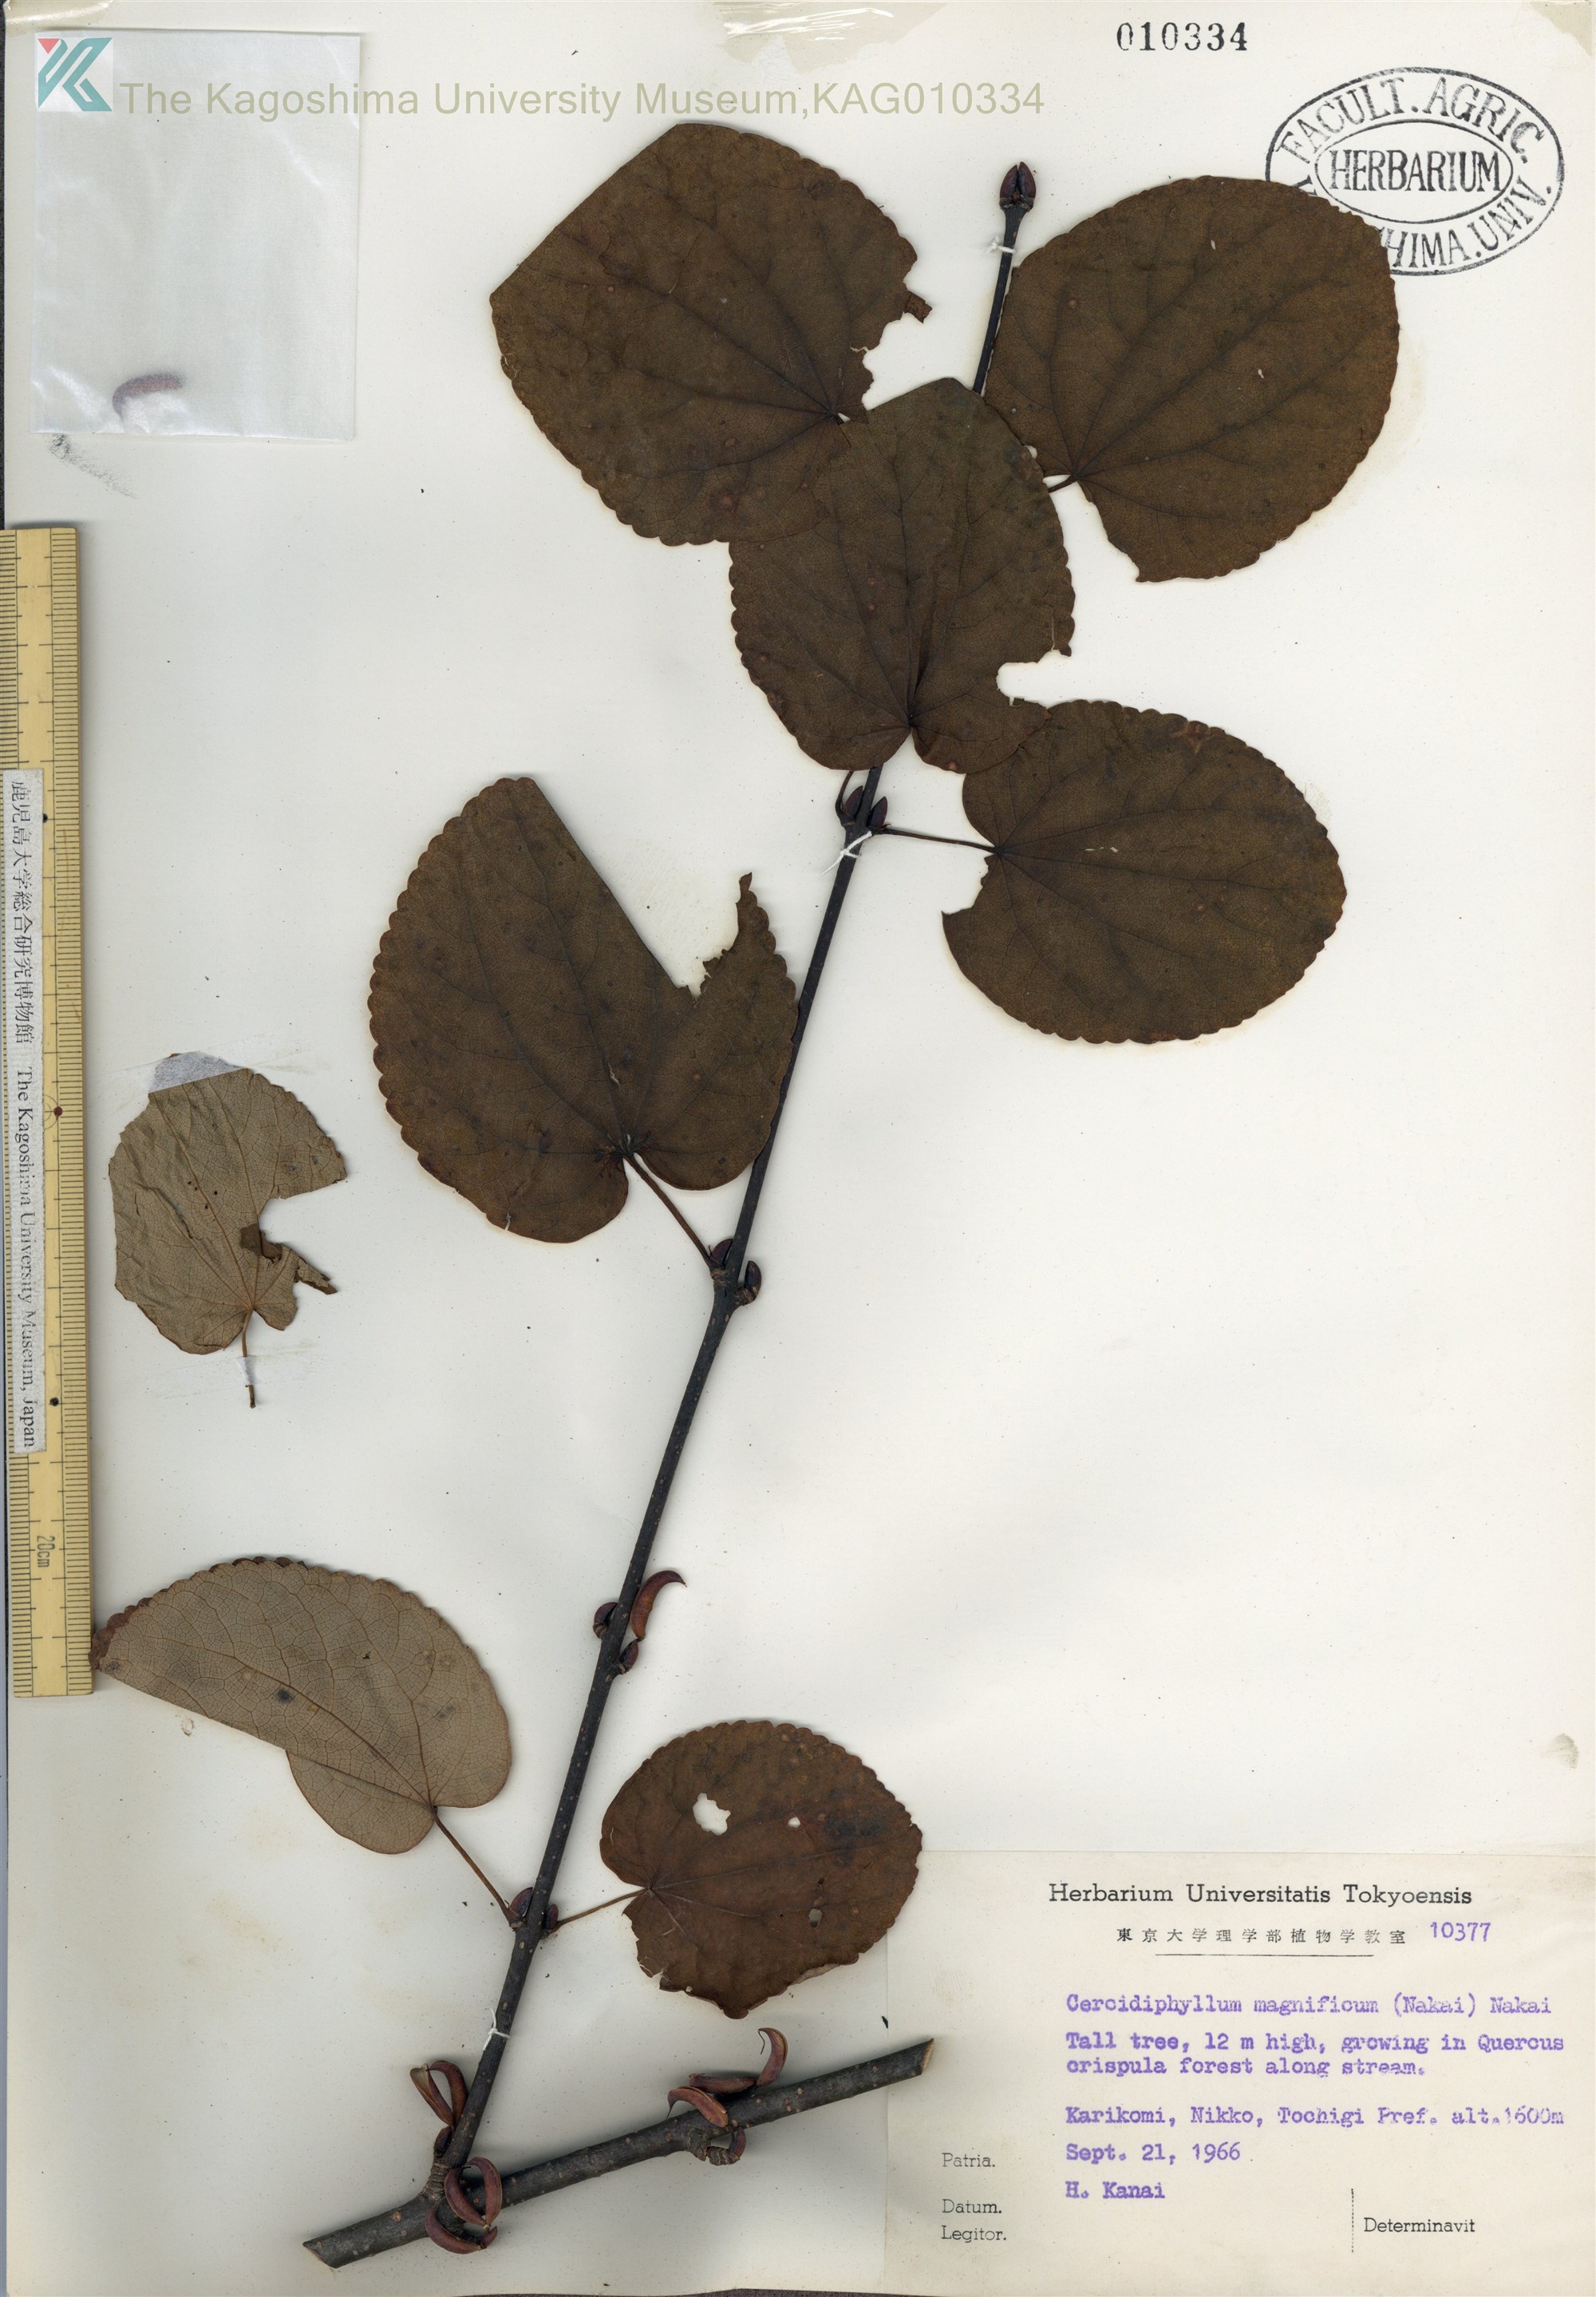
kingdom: Plantae
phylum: Tracheophyta
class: Magnoliopsida
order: Saxifragales
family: Cercidiphyllaceae
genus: Cercidiphyllum
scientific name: Cercidiphyllum magnificum
